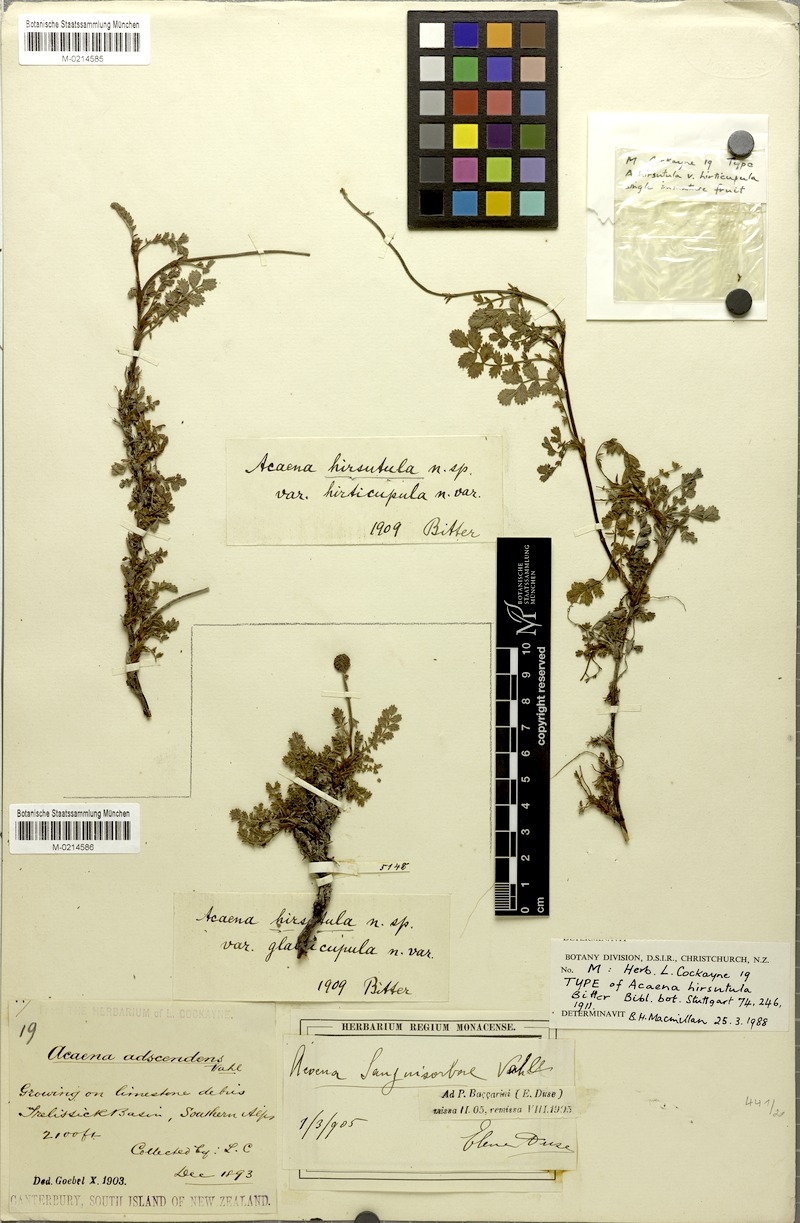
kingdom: Plantae
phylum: Tracheophyta
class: Magnoliopsida
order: Rosales
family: Rosaceae
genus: Acaena
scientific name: Acaena saccaticupula
